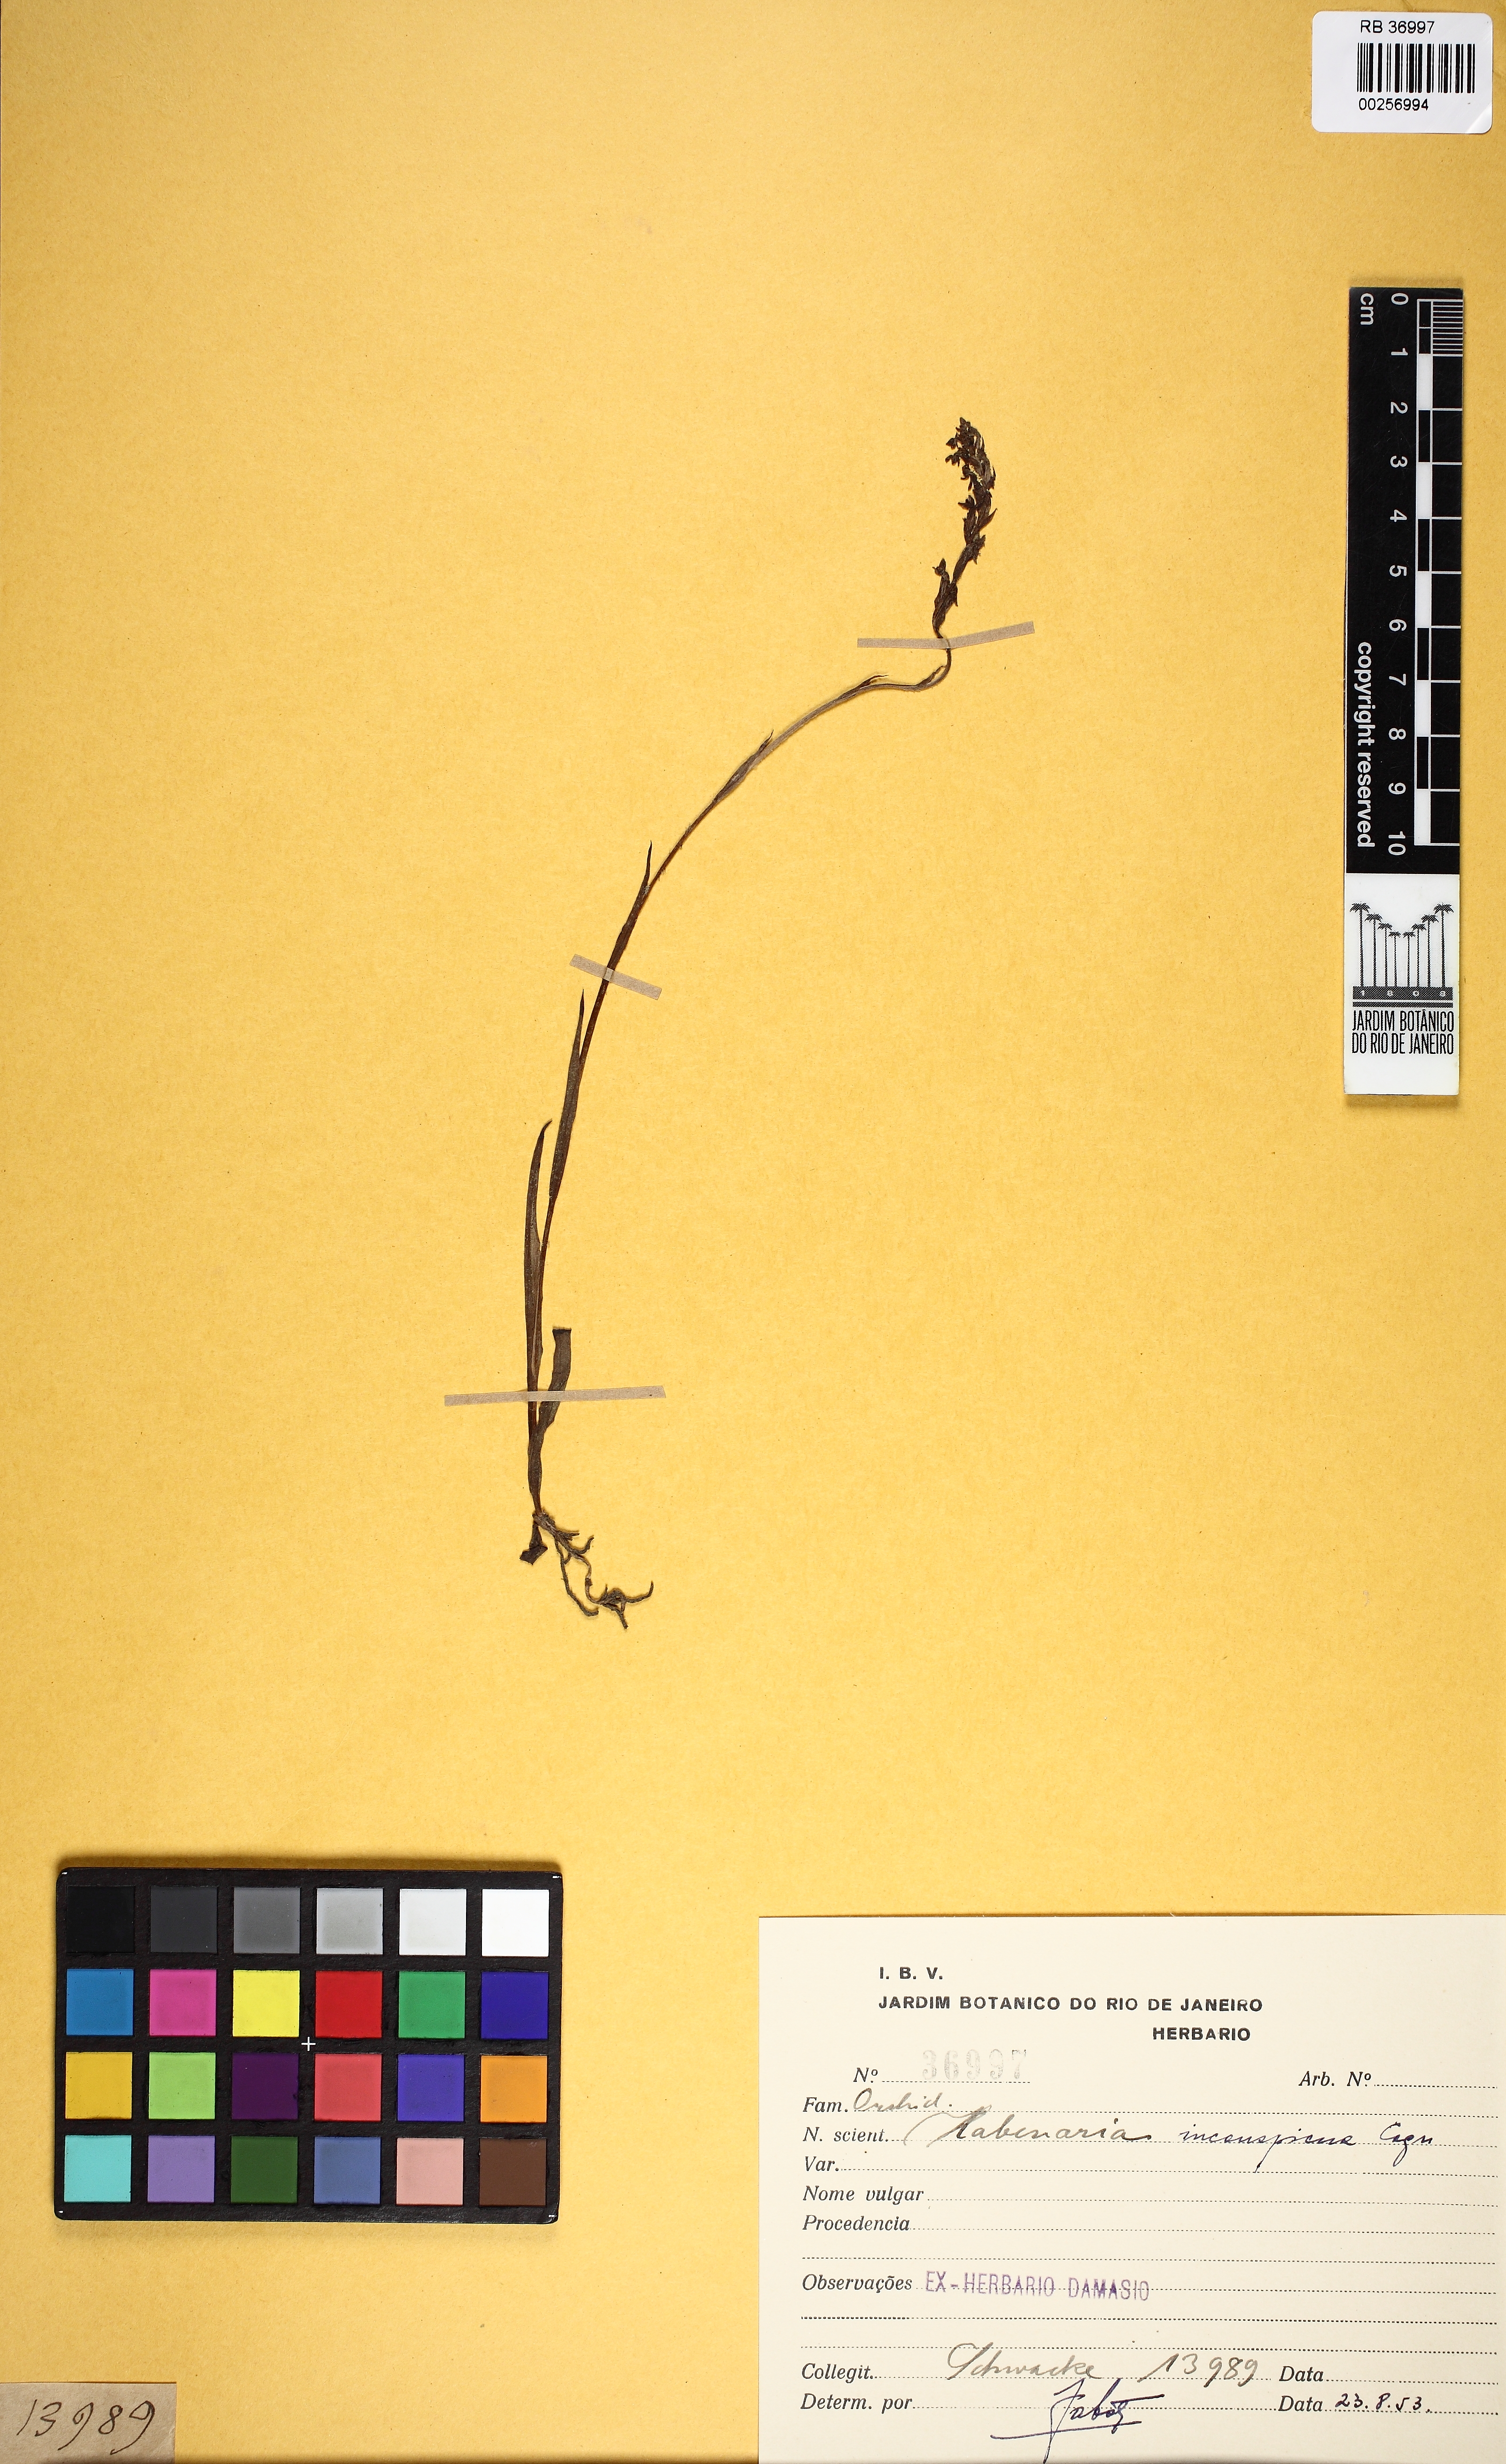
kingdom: Plantae
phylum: Tracheophyta
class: Liliopsida
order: Asparagales
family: Orchidaceae
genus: Habenaria
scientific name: Habenaria paulensis
